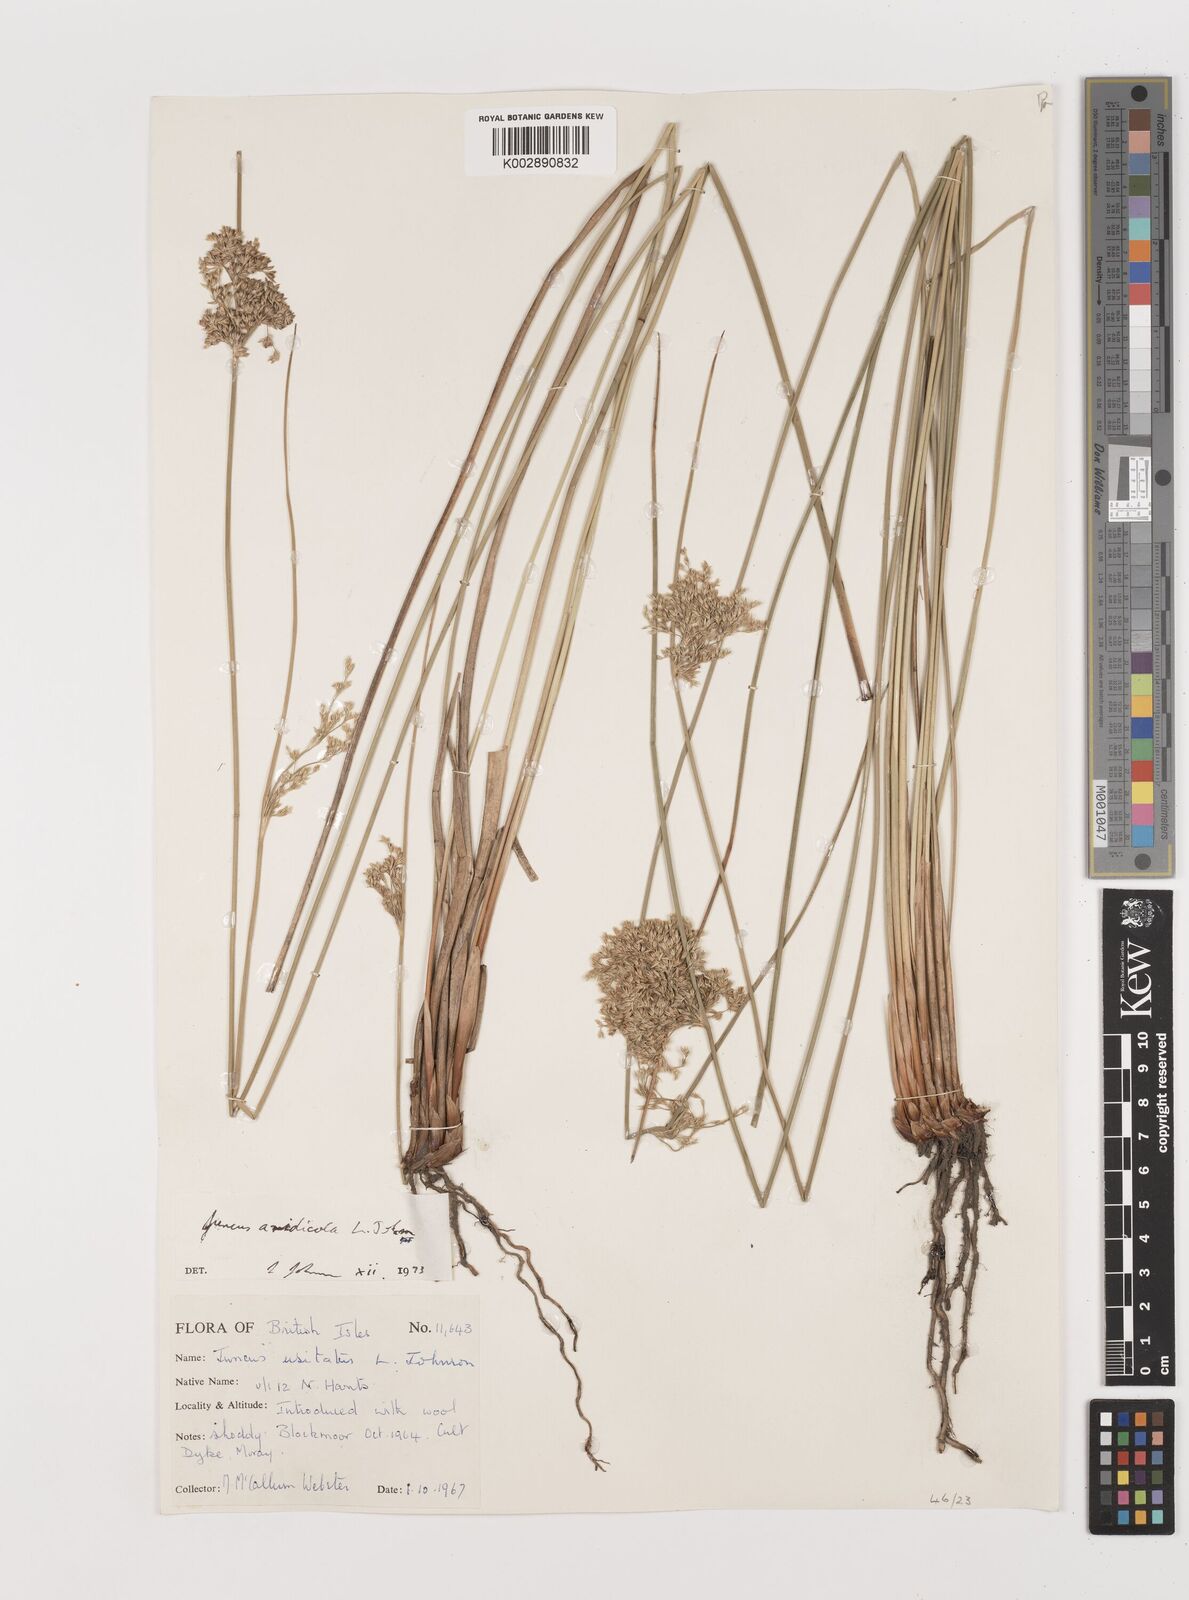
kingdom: Plantae
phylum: Tracheophyta
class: Liliopsida
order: Poales
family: Juncaceae
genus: Juncus
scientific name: Juncus aridicola
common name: Tussock rush
